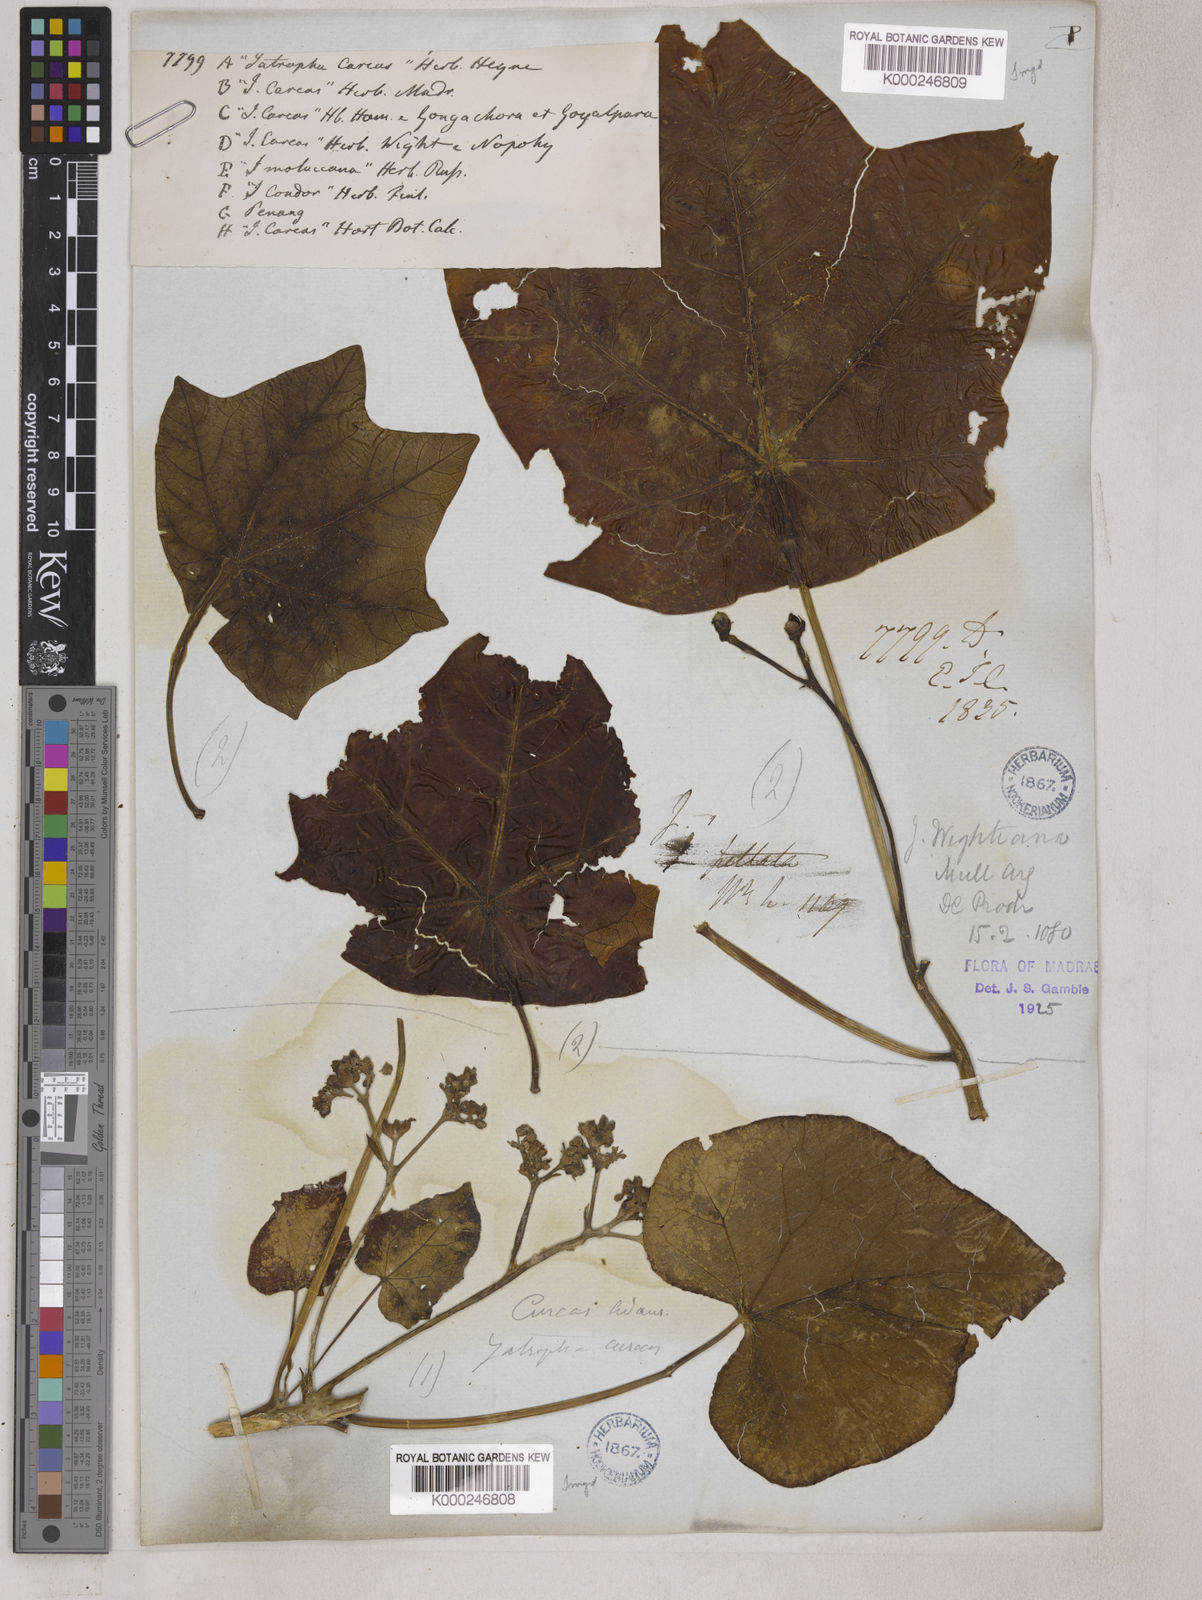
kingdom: Plantae
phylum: Tracheophyta
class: Magnoliopsida
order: Malpighiales
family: Euphorbiaceae
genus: Jatropha
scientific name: Jatropha
